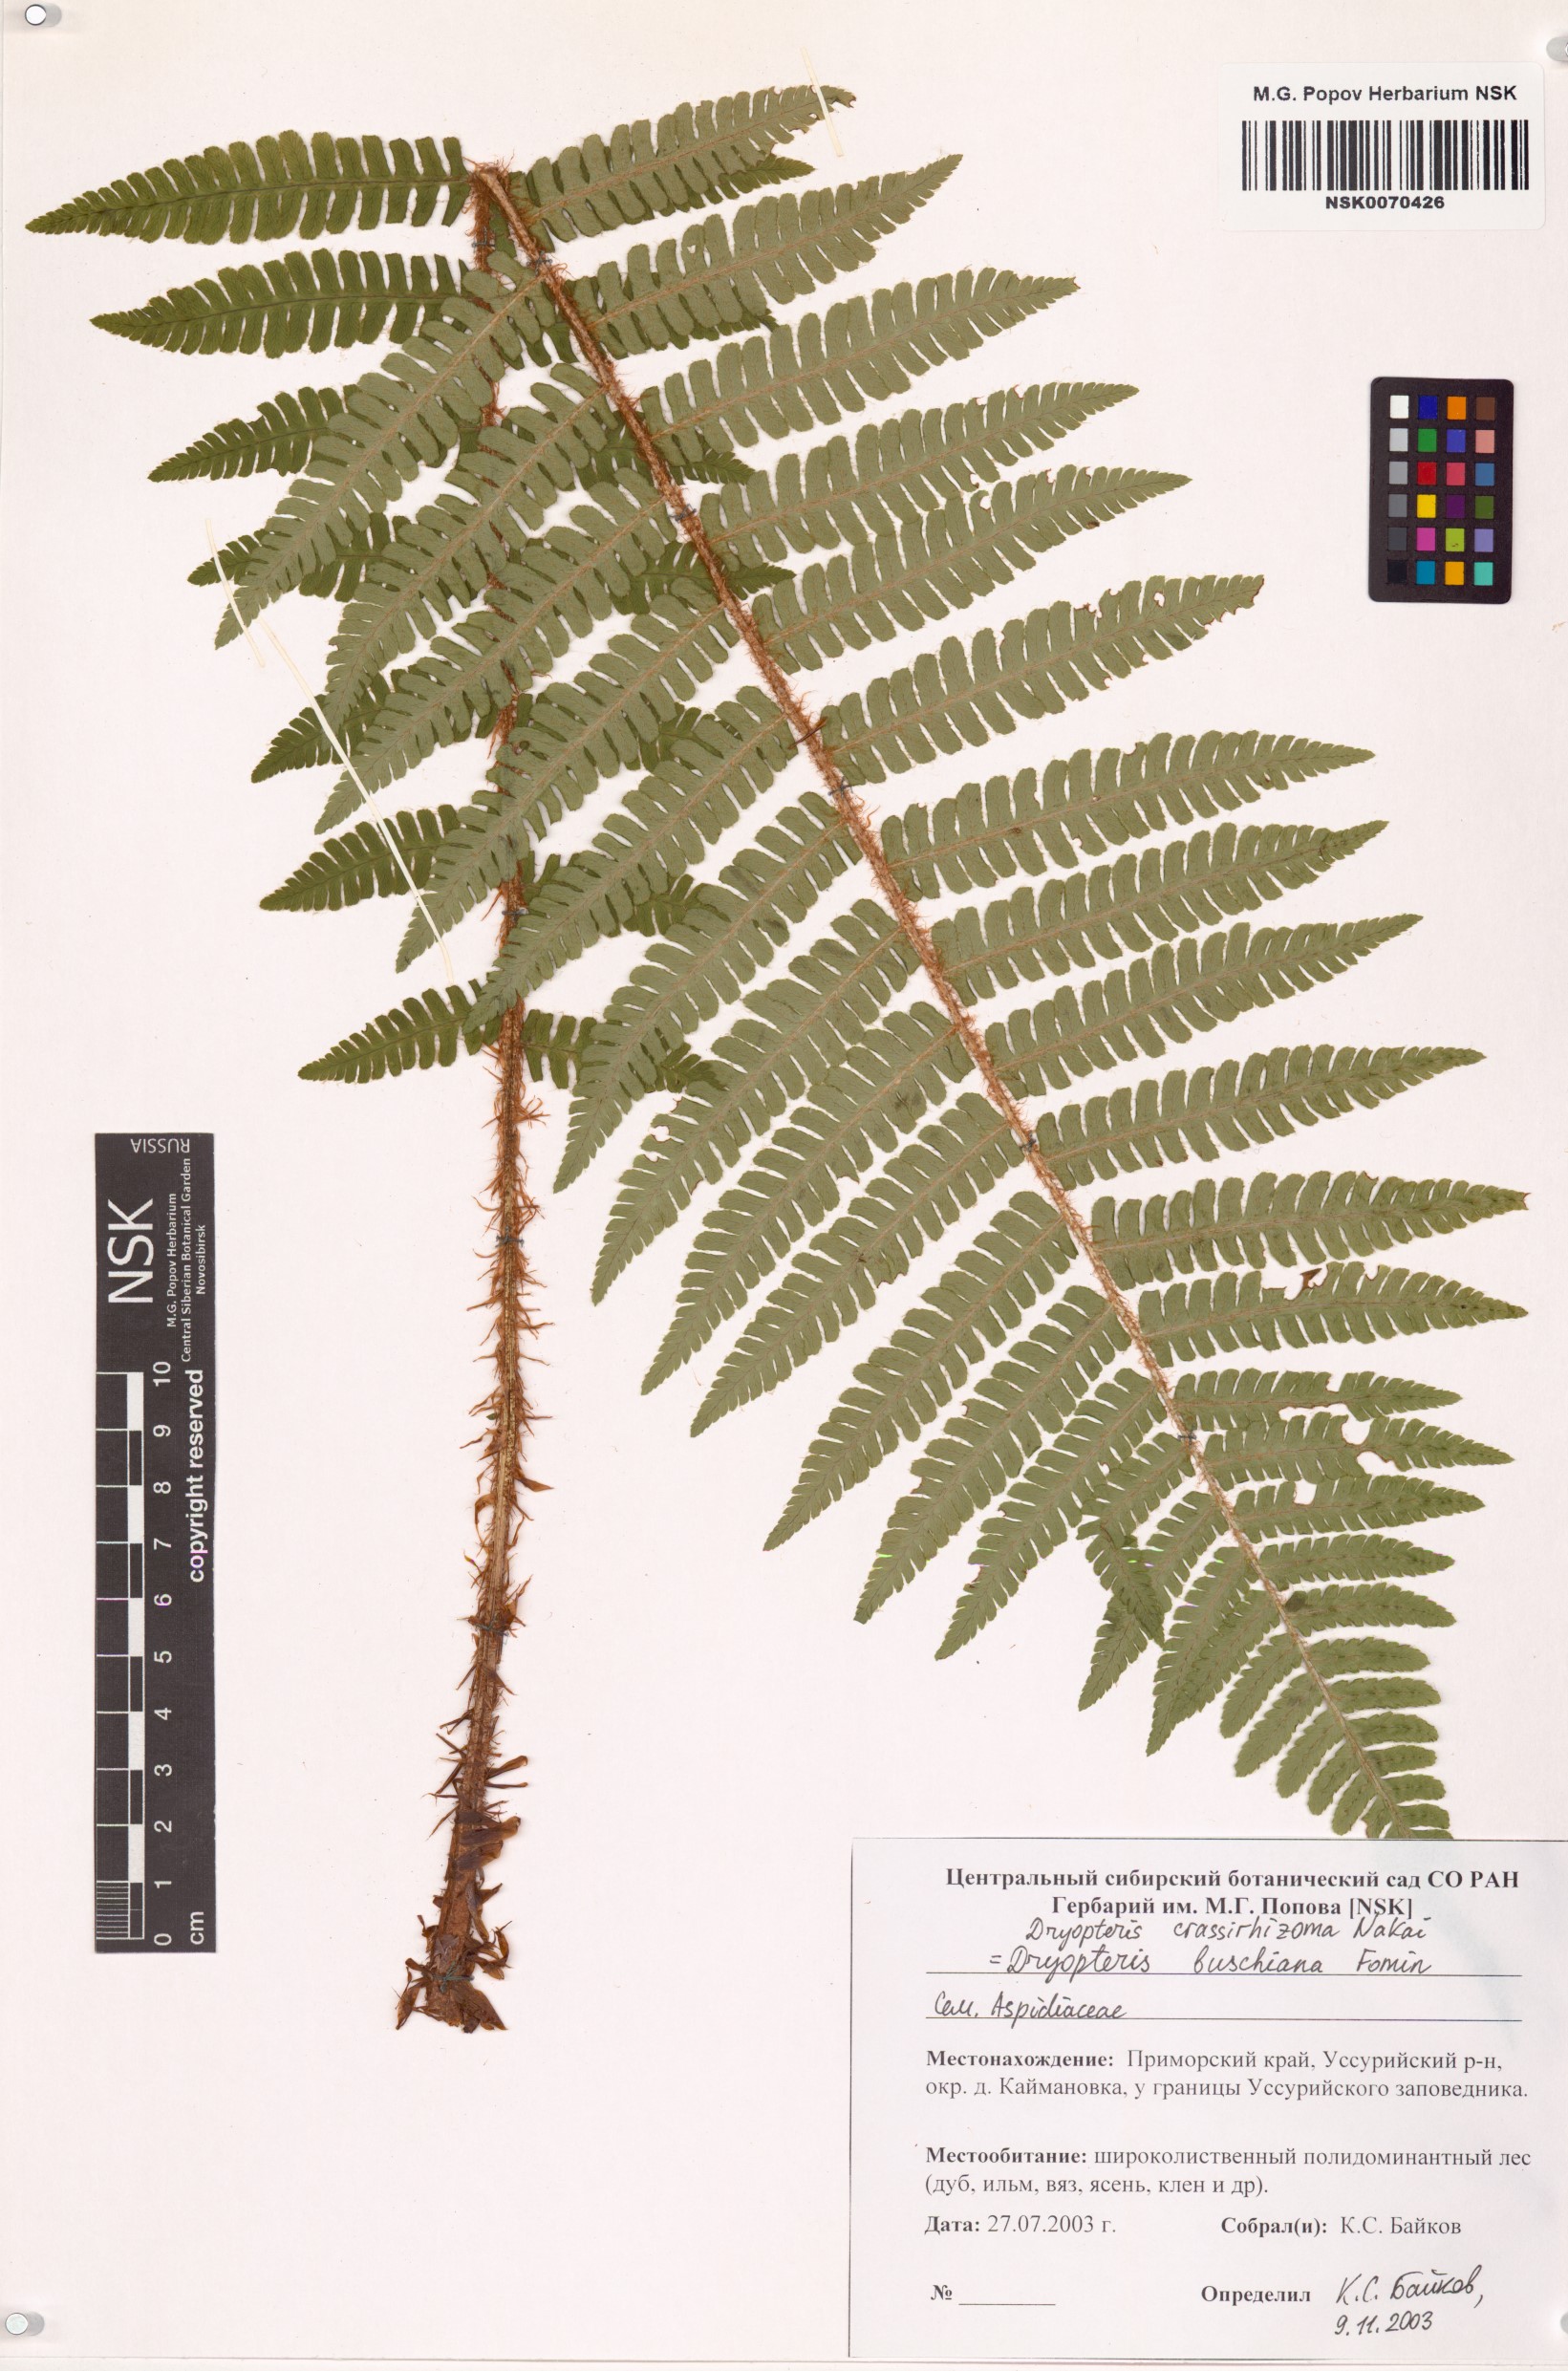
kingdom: Plantae
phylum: Tracheophyta
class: Polypodiopsida
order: Polypodiales
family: Dryopteridaceae
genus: Dryopteris
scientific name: Dryopteris crassirhizoma
